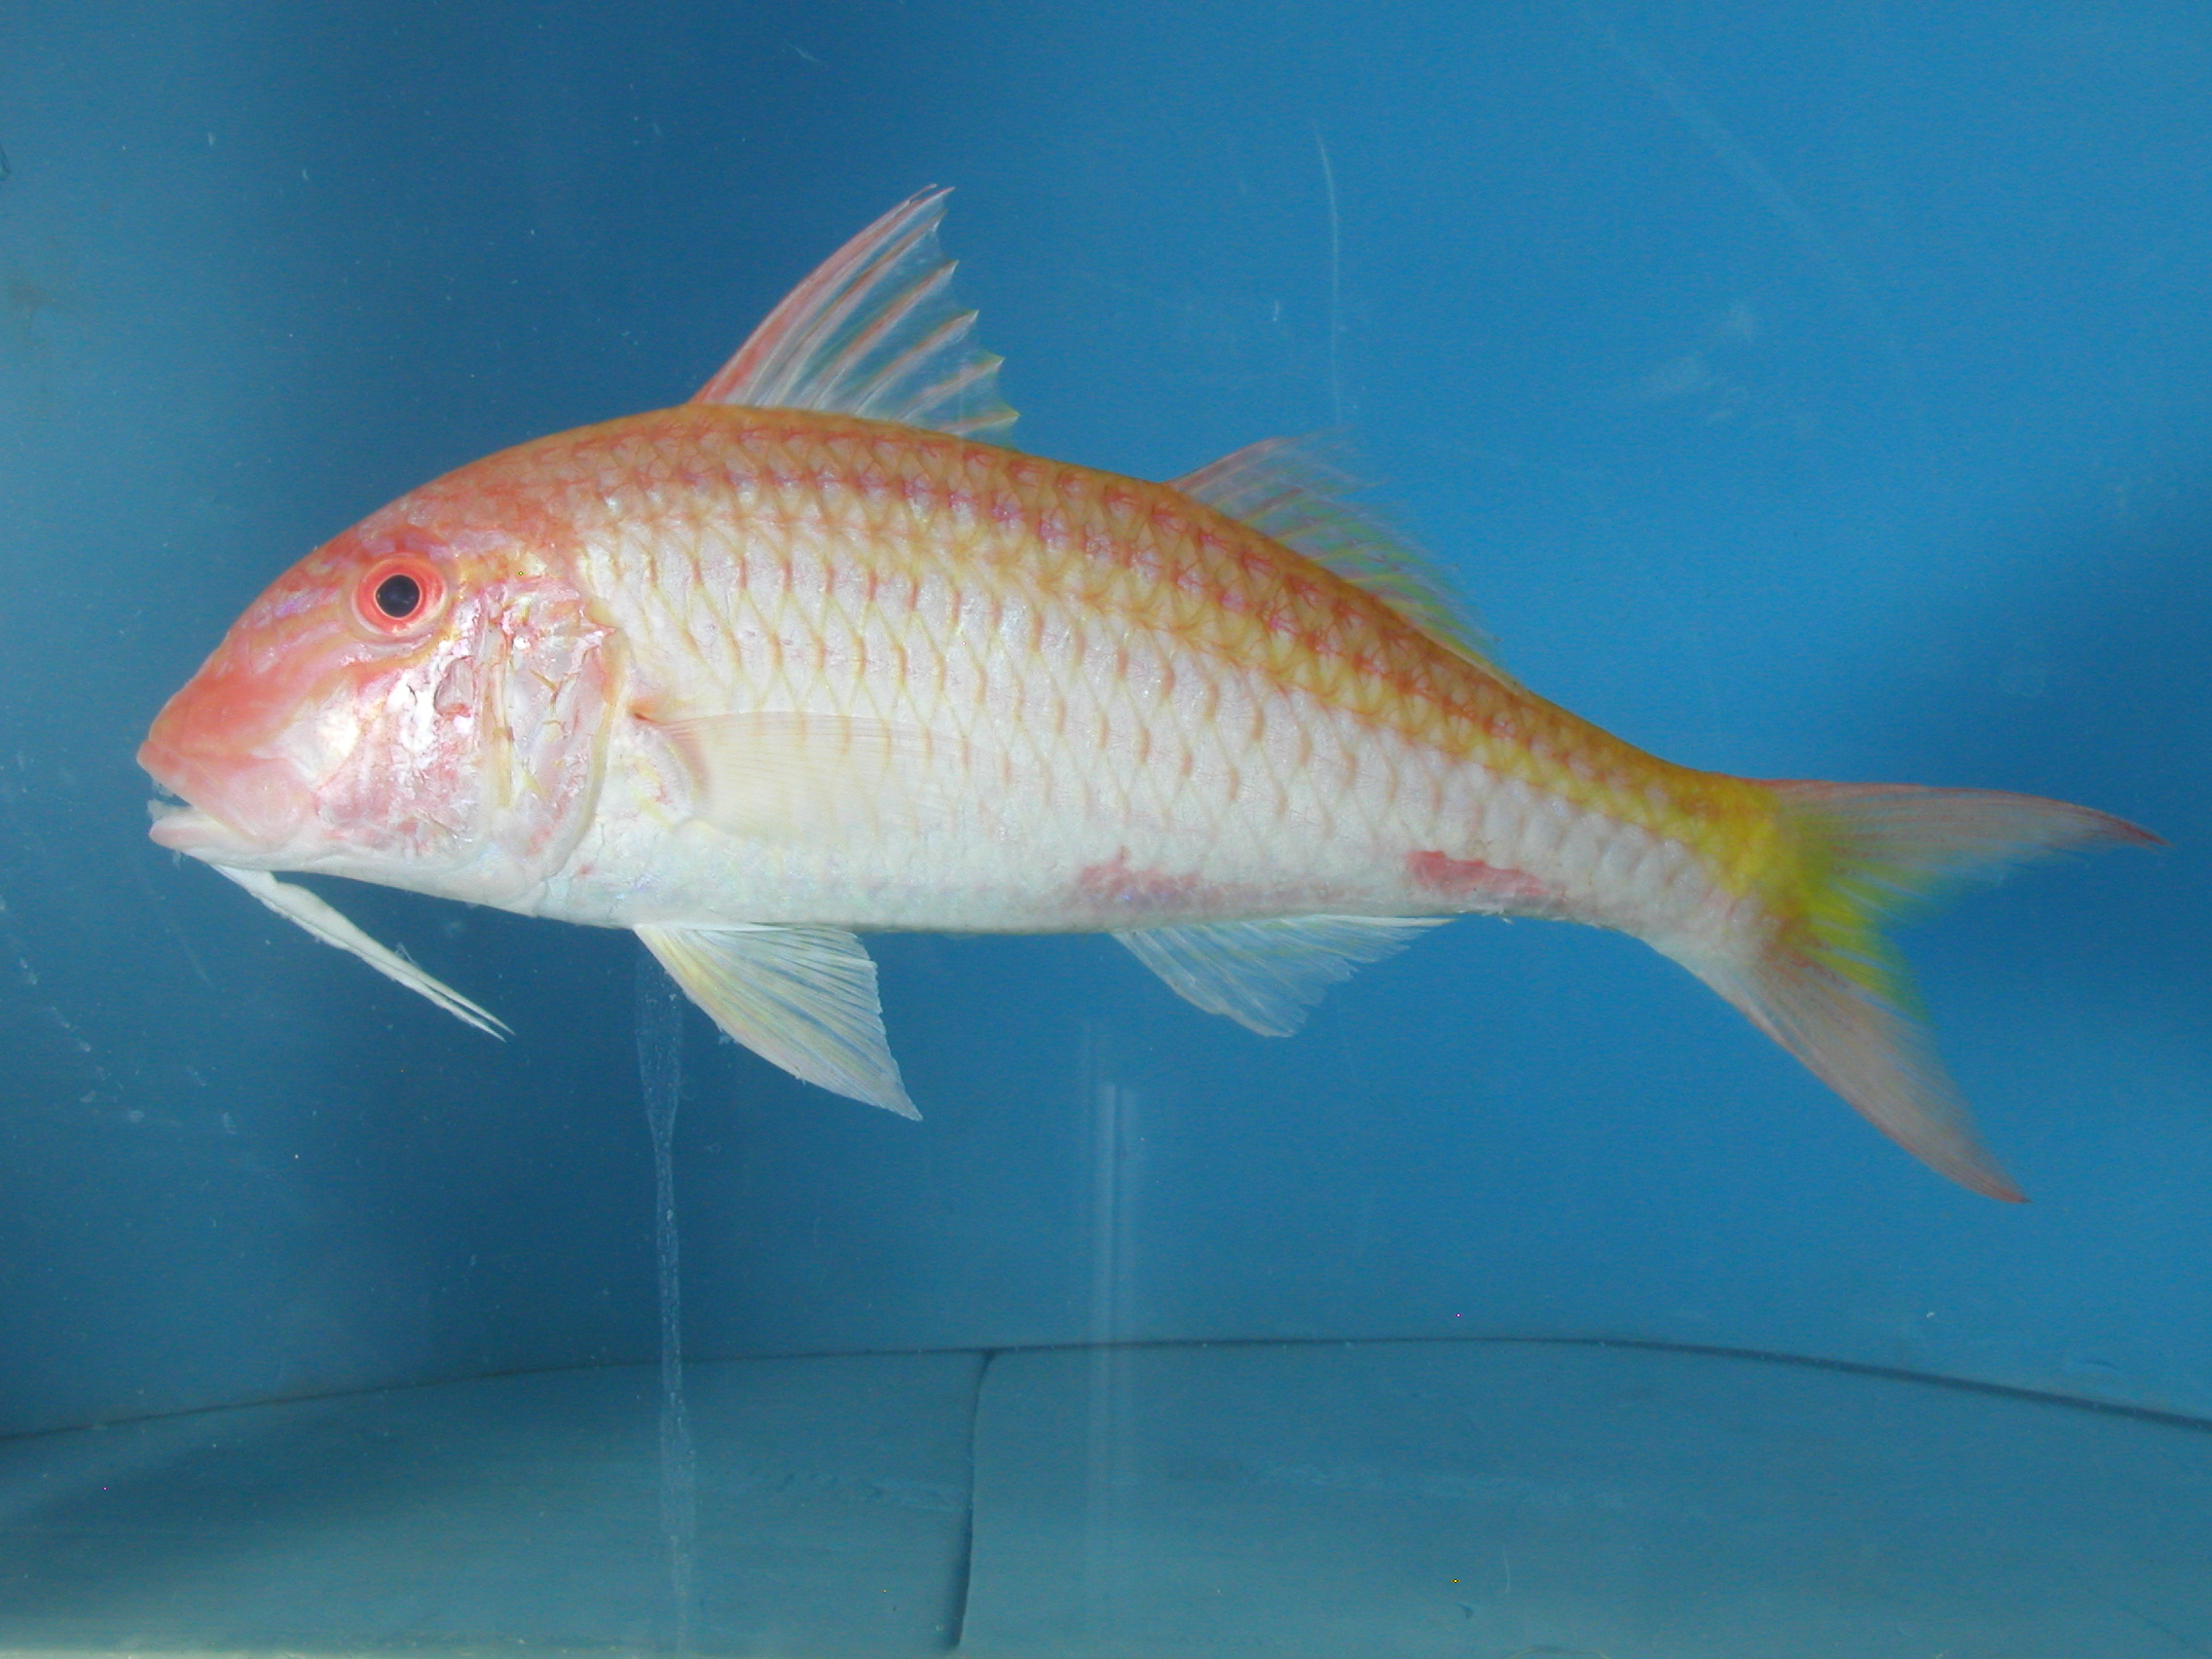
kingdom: Animalia
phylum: Chordata
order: Perciformes
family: Mullidae
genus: Parupeneus
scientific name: Parupeneus seychellensis
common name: Seychelles goatfish
